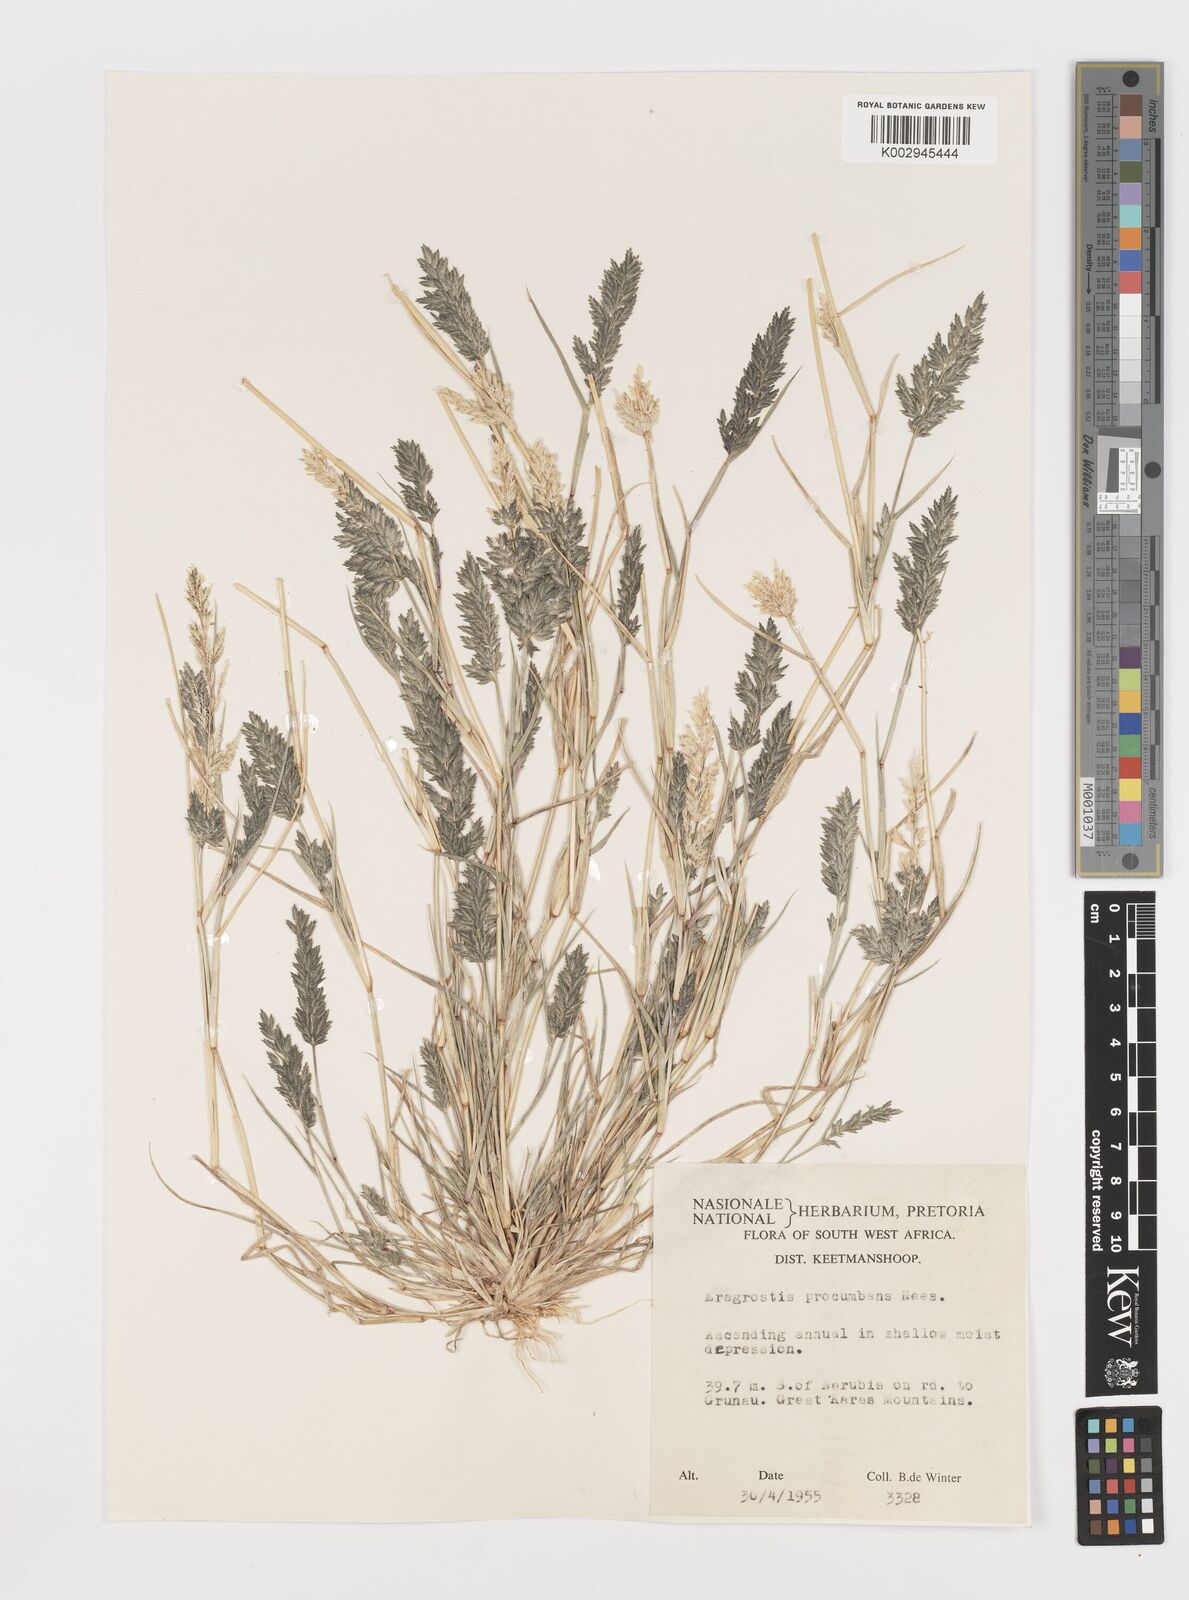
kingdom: Plantae
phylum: Tracheophyta
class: Liliopsida
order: Poales
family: Poaceae
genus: Eragrostis
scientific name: Eragrostis procumbens
